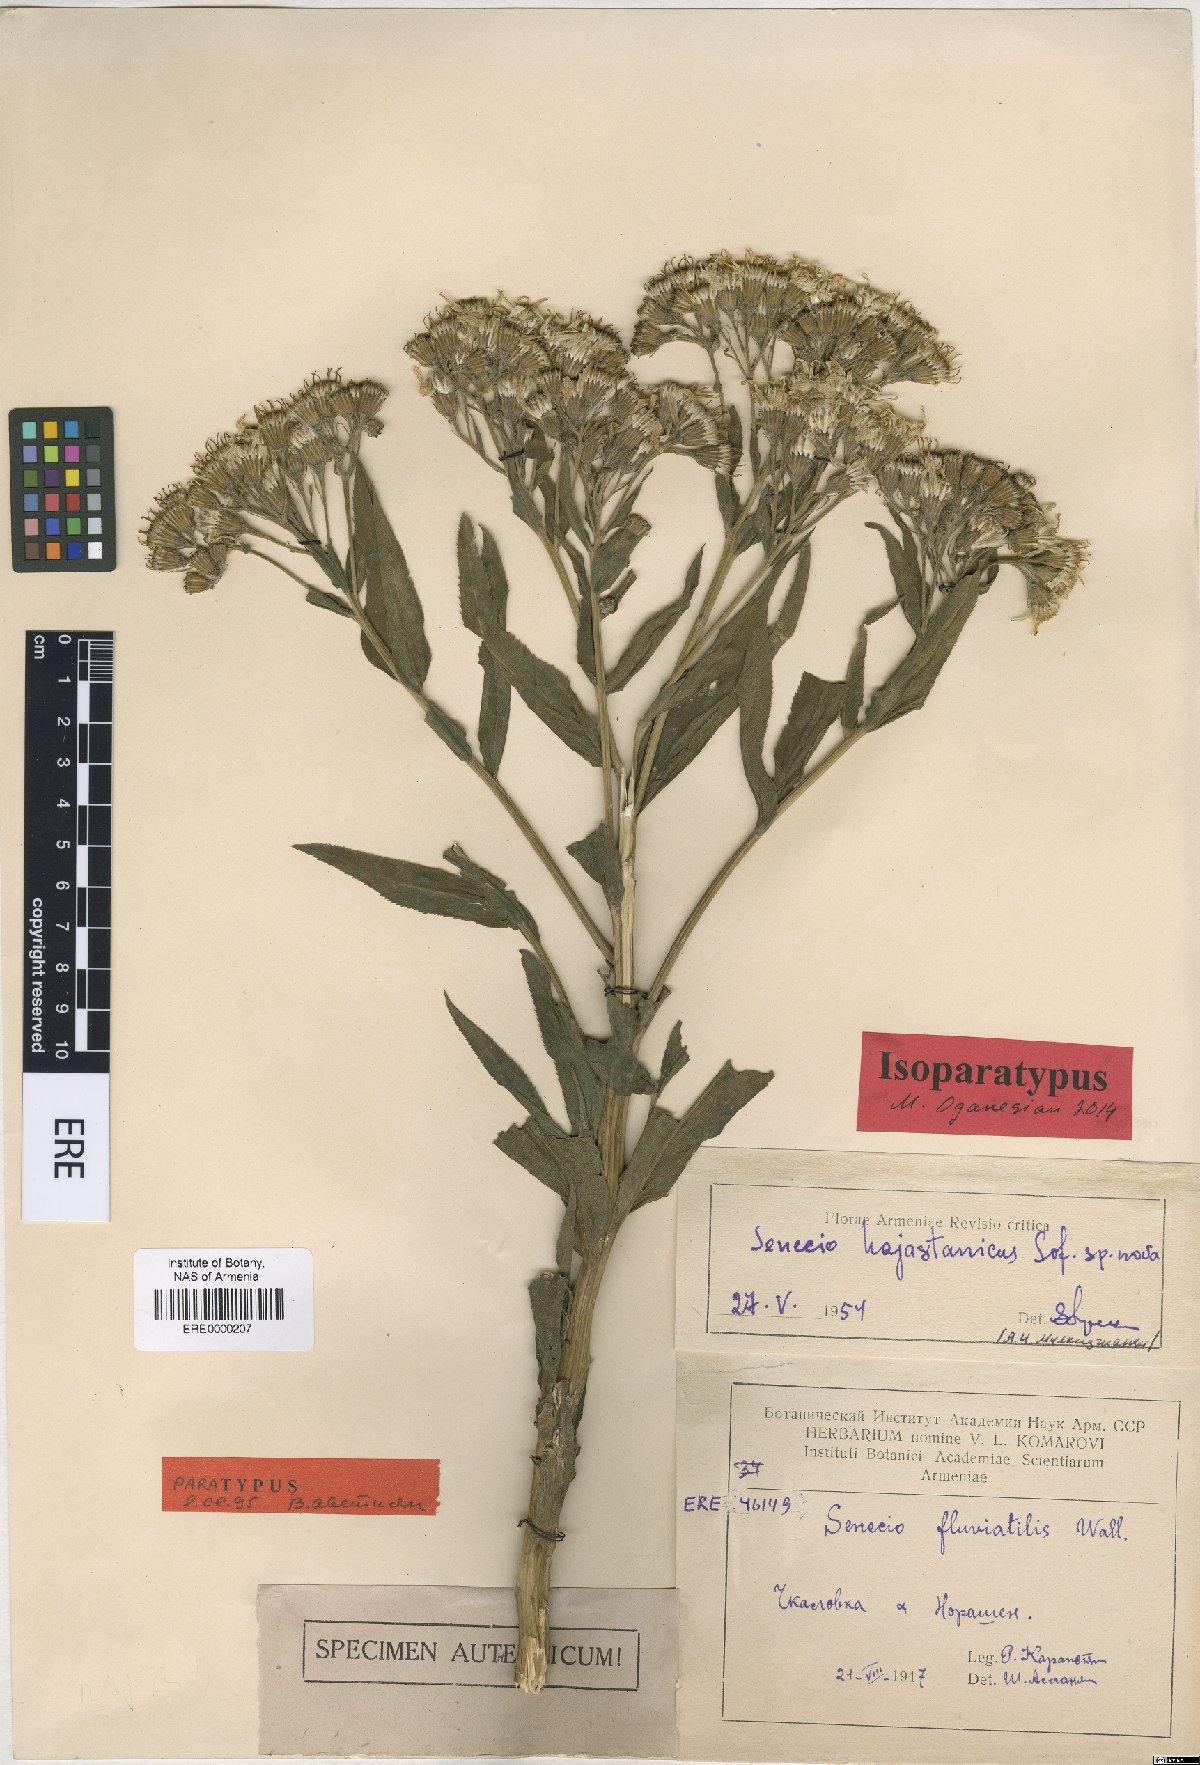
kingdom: Plantae
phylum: Tracheophyta
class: Magnoliopsida
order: Asterales
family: Asteraceae
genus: Senecio
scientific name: Senecio hajastanicus
